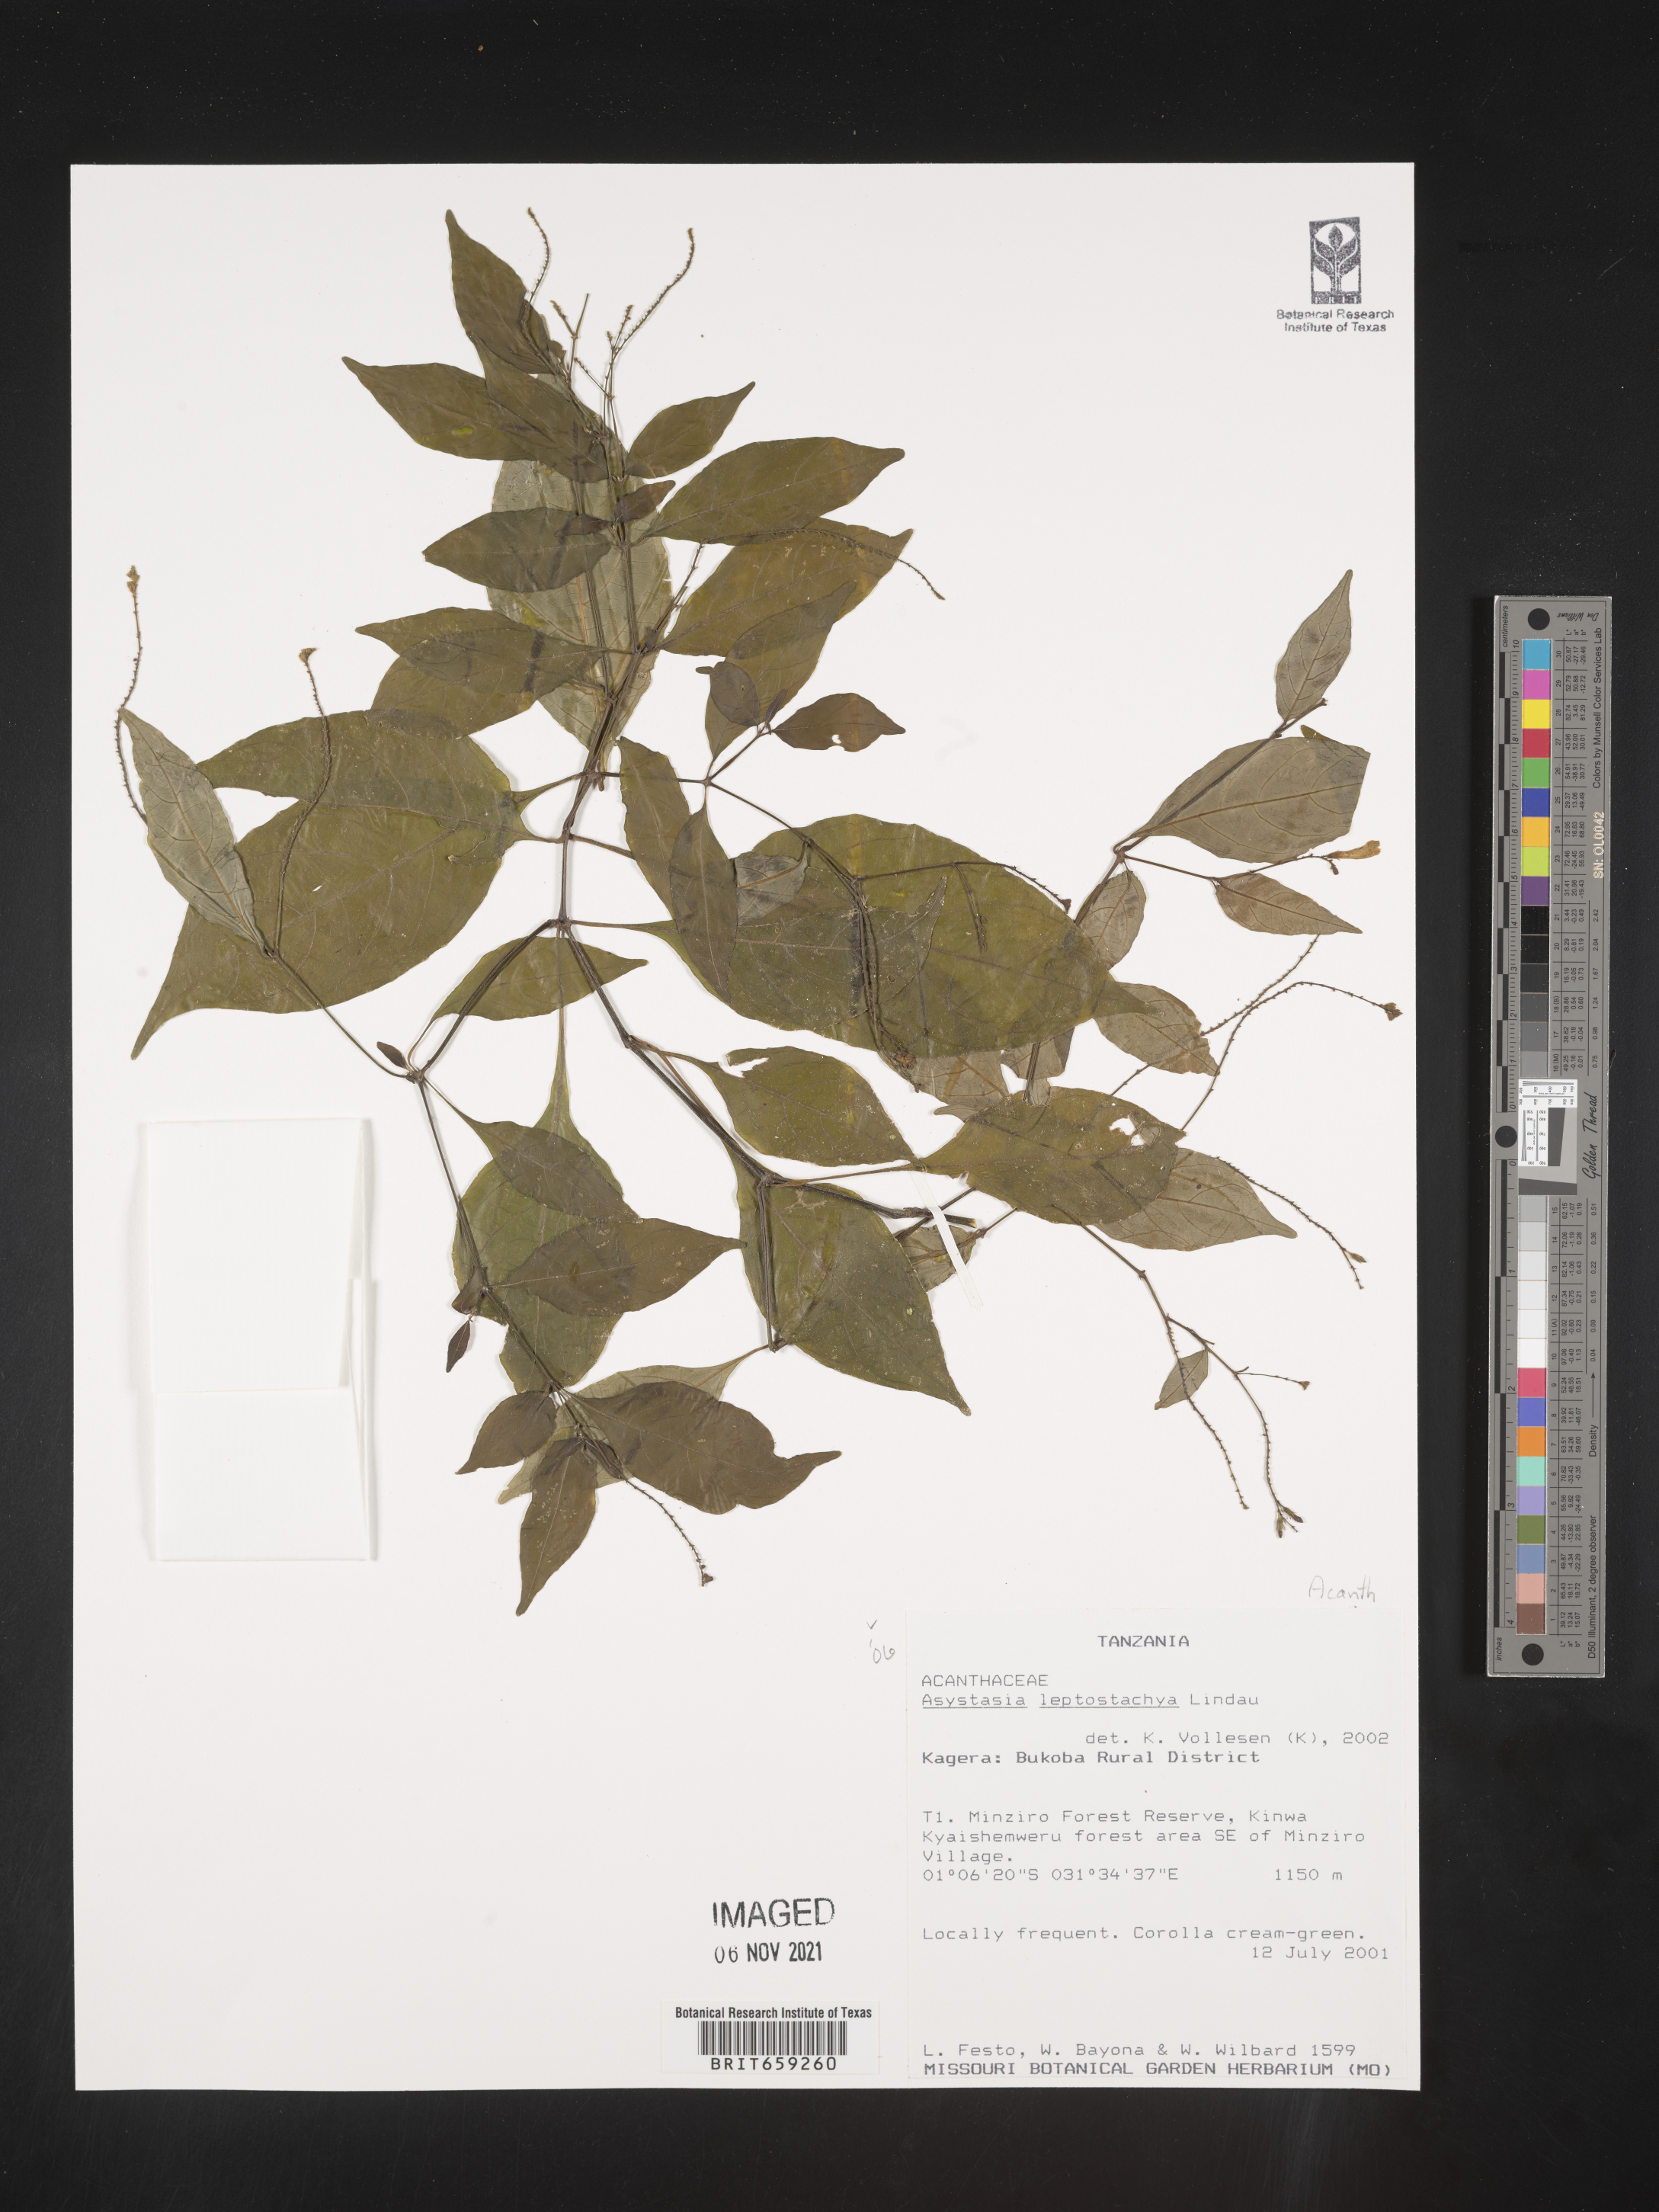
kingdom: Plantae
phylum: Tracheophyta
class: Magnoliopsida
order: Lamiales
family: Acanthaceae
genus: Asystasia
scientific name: Asystasia leptostachya
